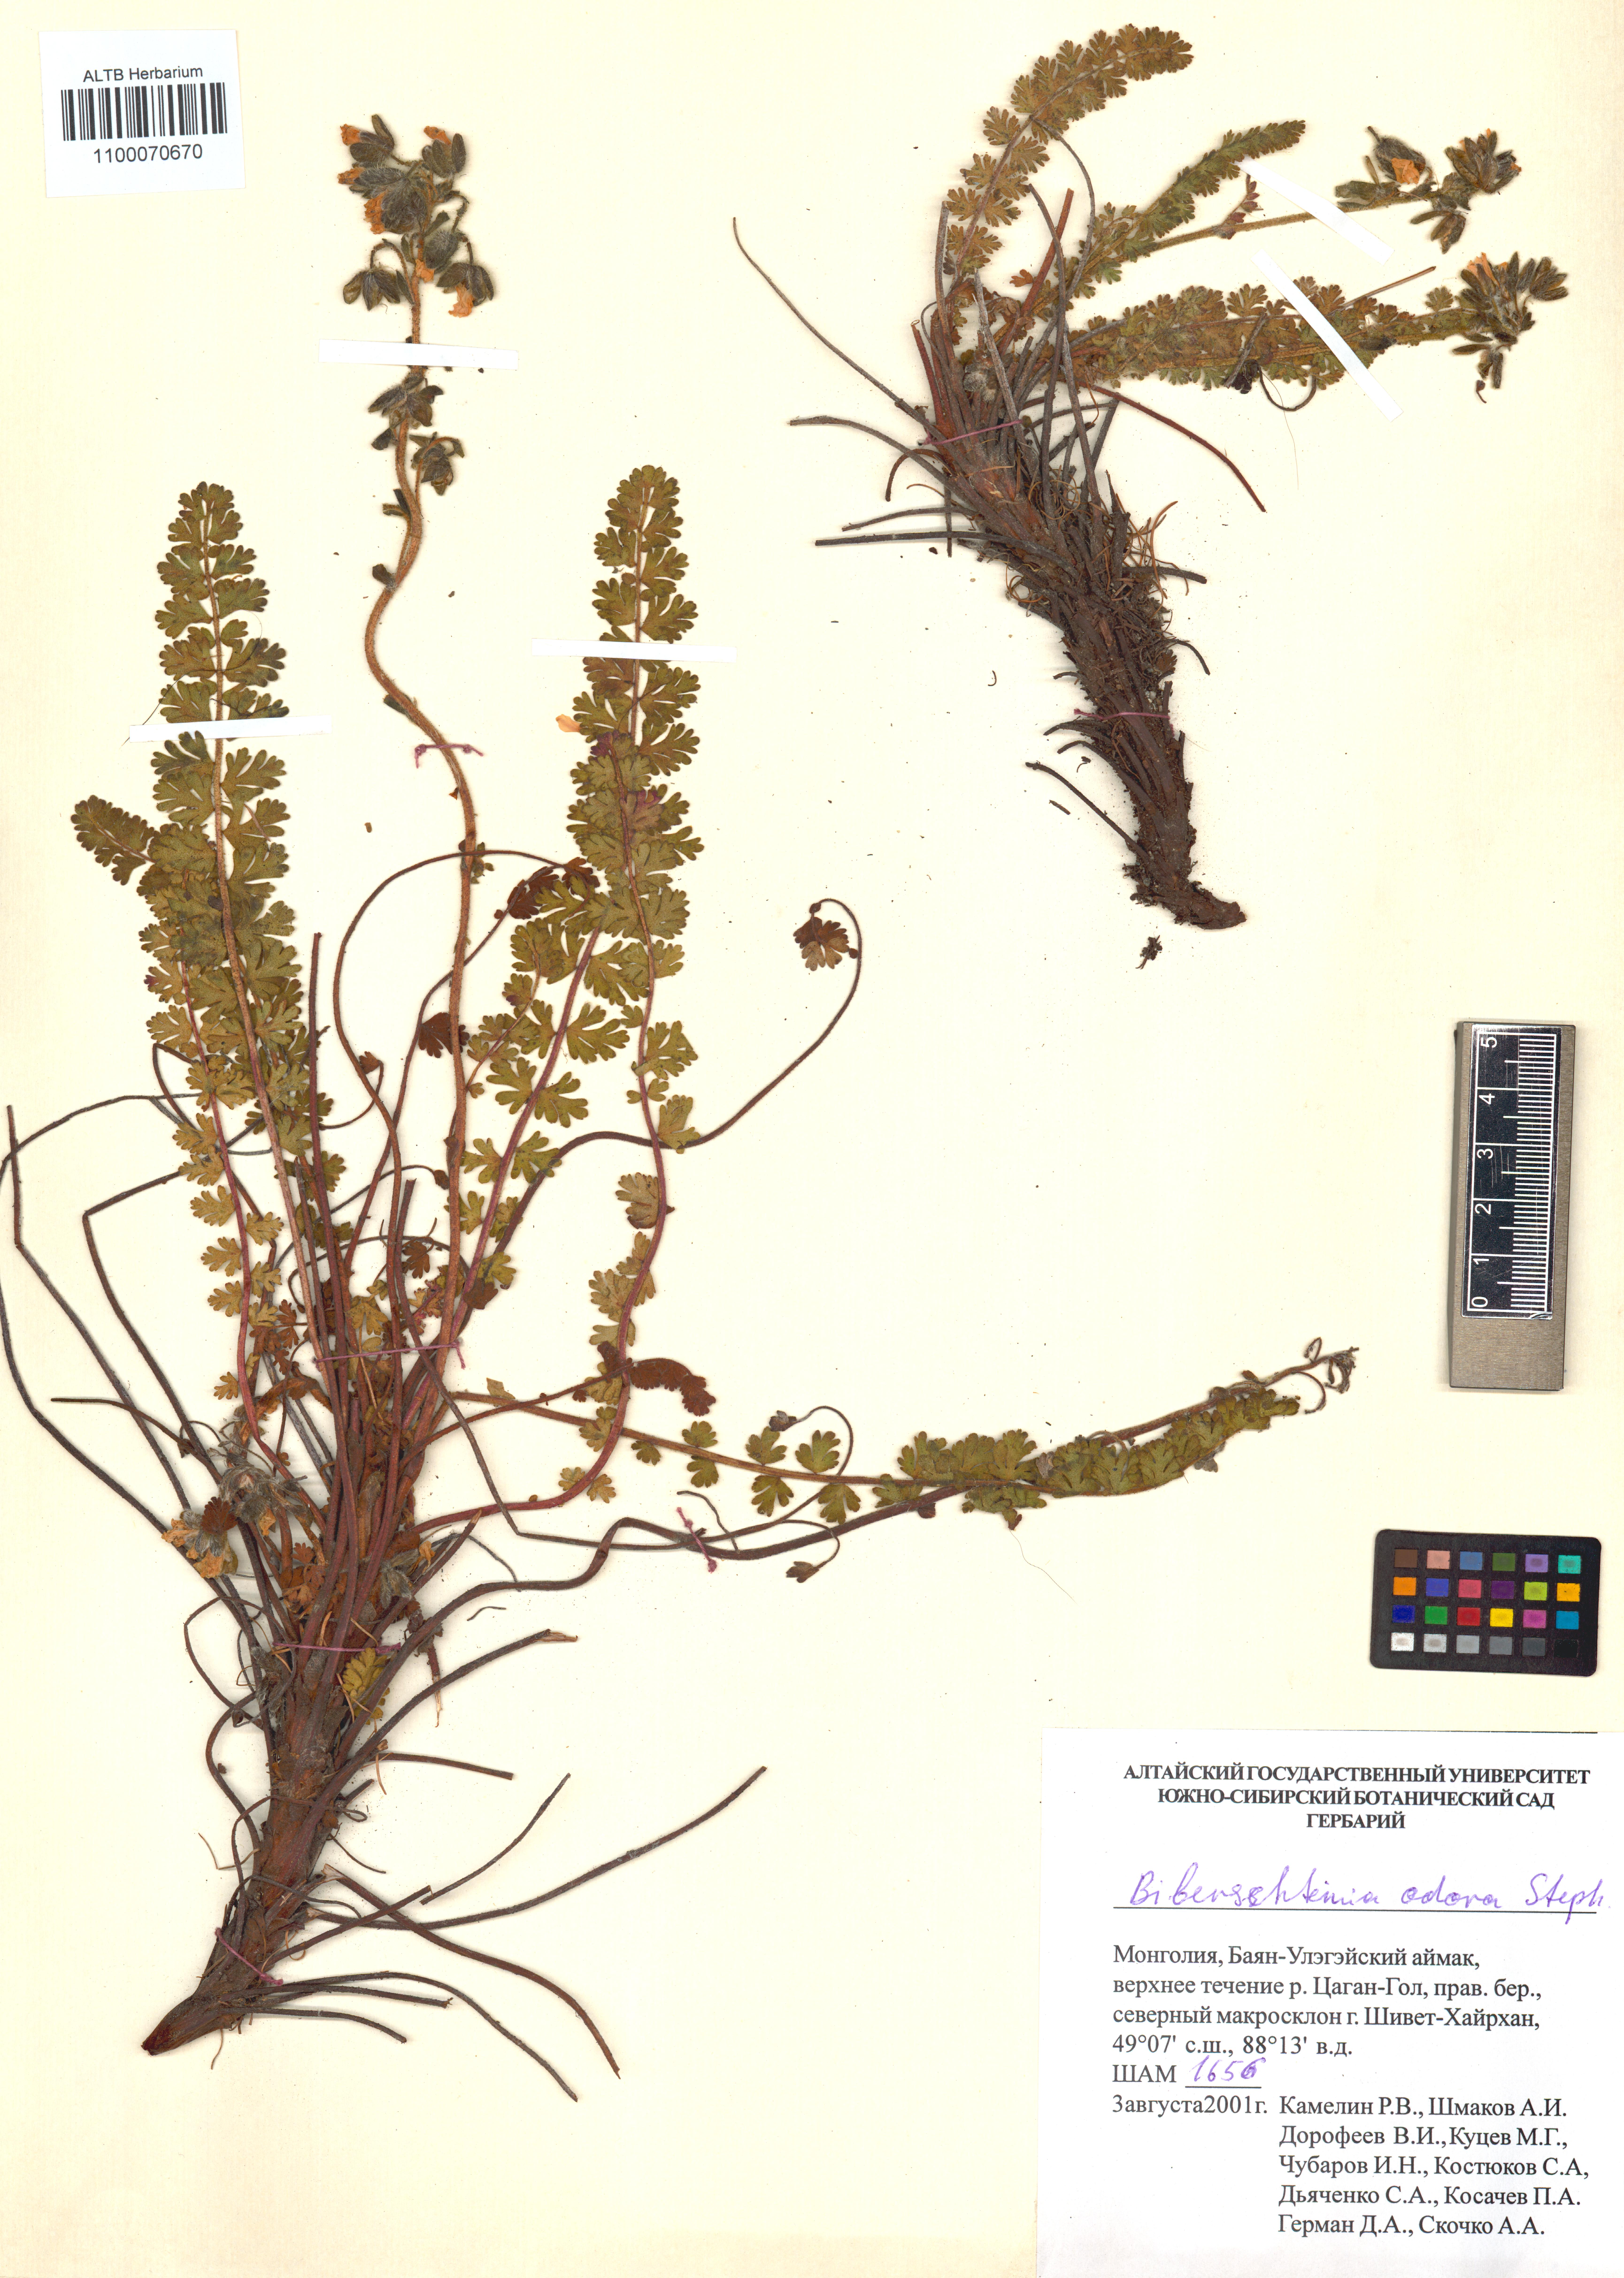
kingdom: Plantae
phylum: Tracheophyta
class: Magnoliopsida
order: Sapindales
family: Biebersteiniaceae
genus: Biebersteinia
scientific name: Biebersteinia odora
